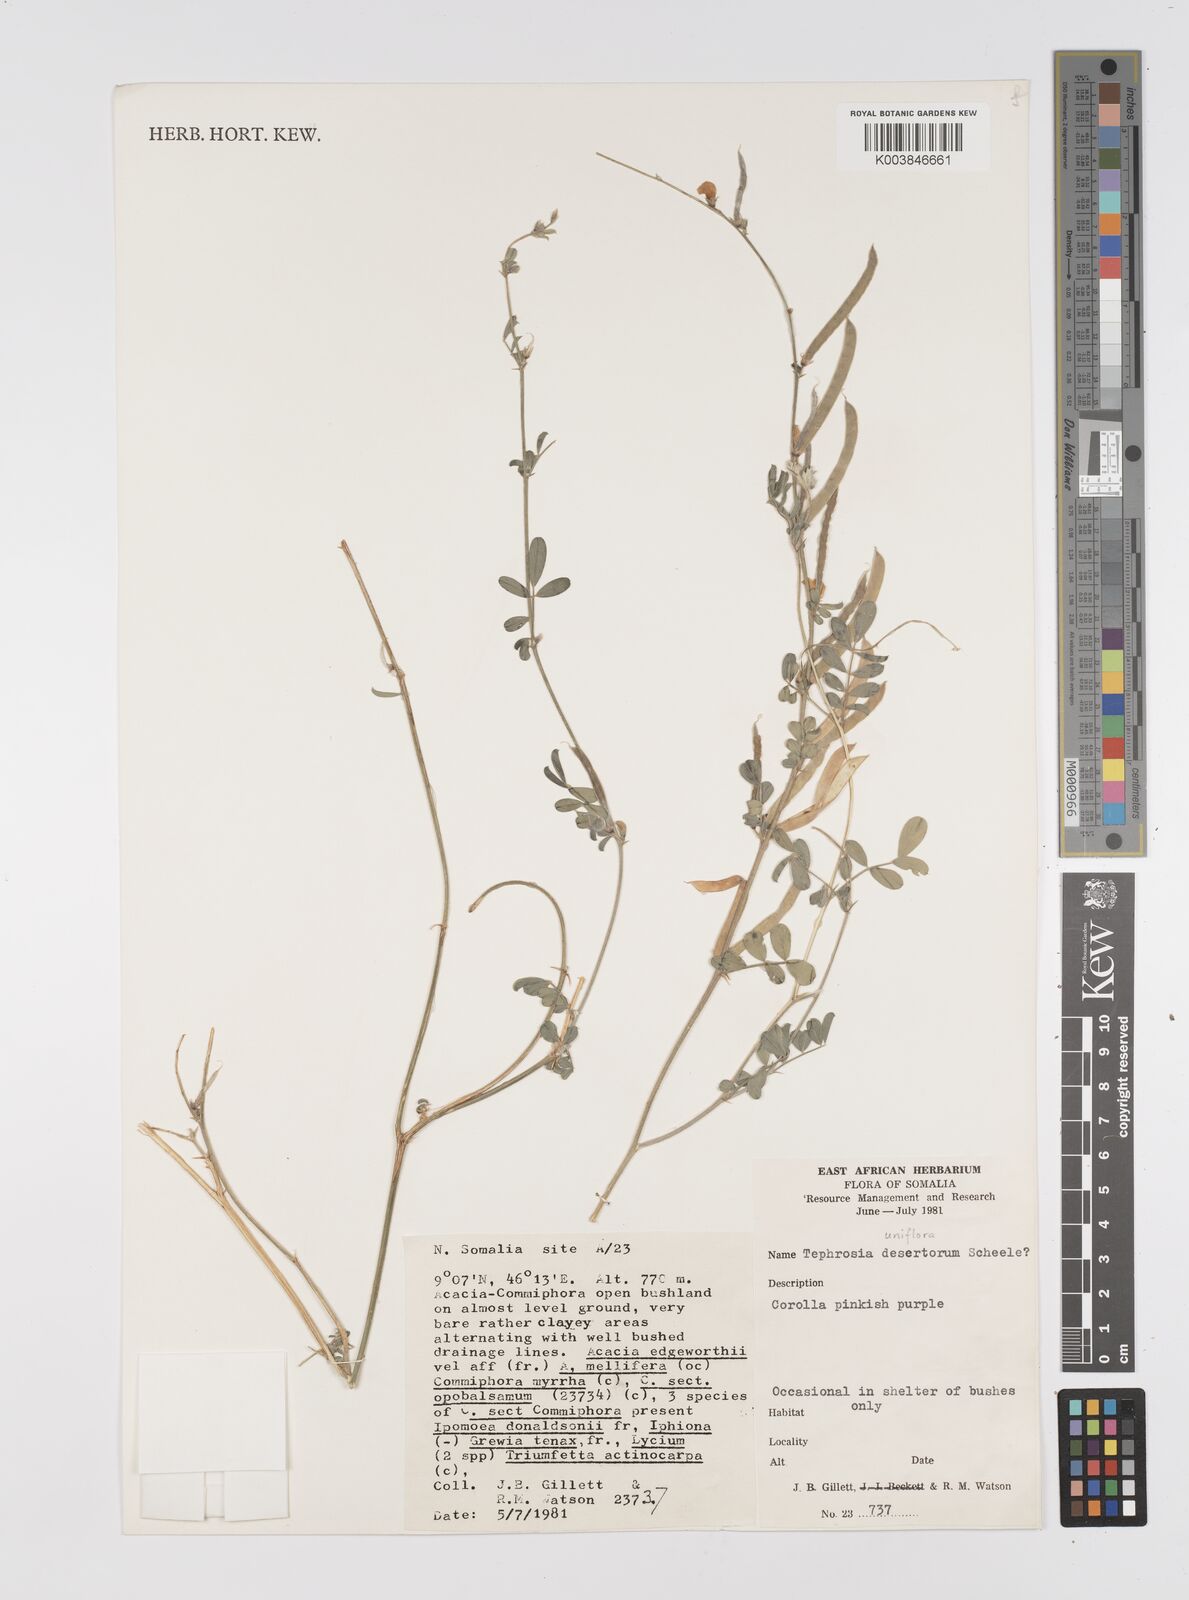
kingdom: Plantae
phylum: Tracheophyta
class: Magnoliopsida
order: Fabales
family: Fabaceae
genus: Tephrosia
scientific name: Tephrosia uniflora
